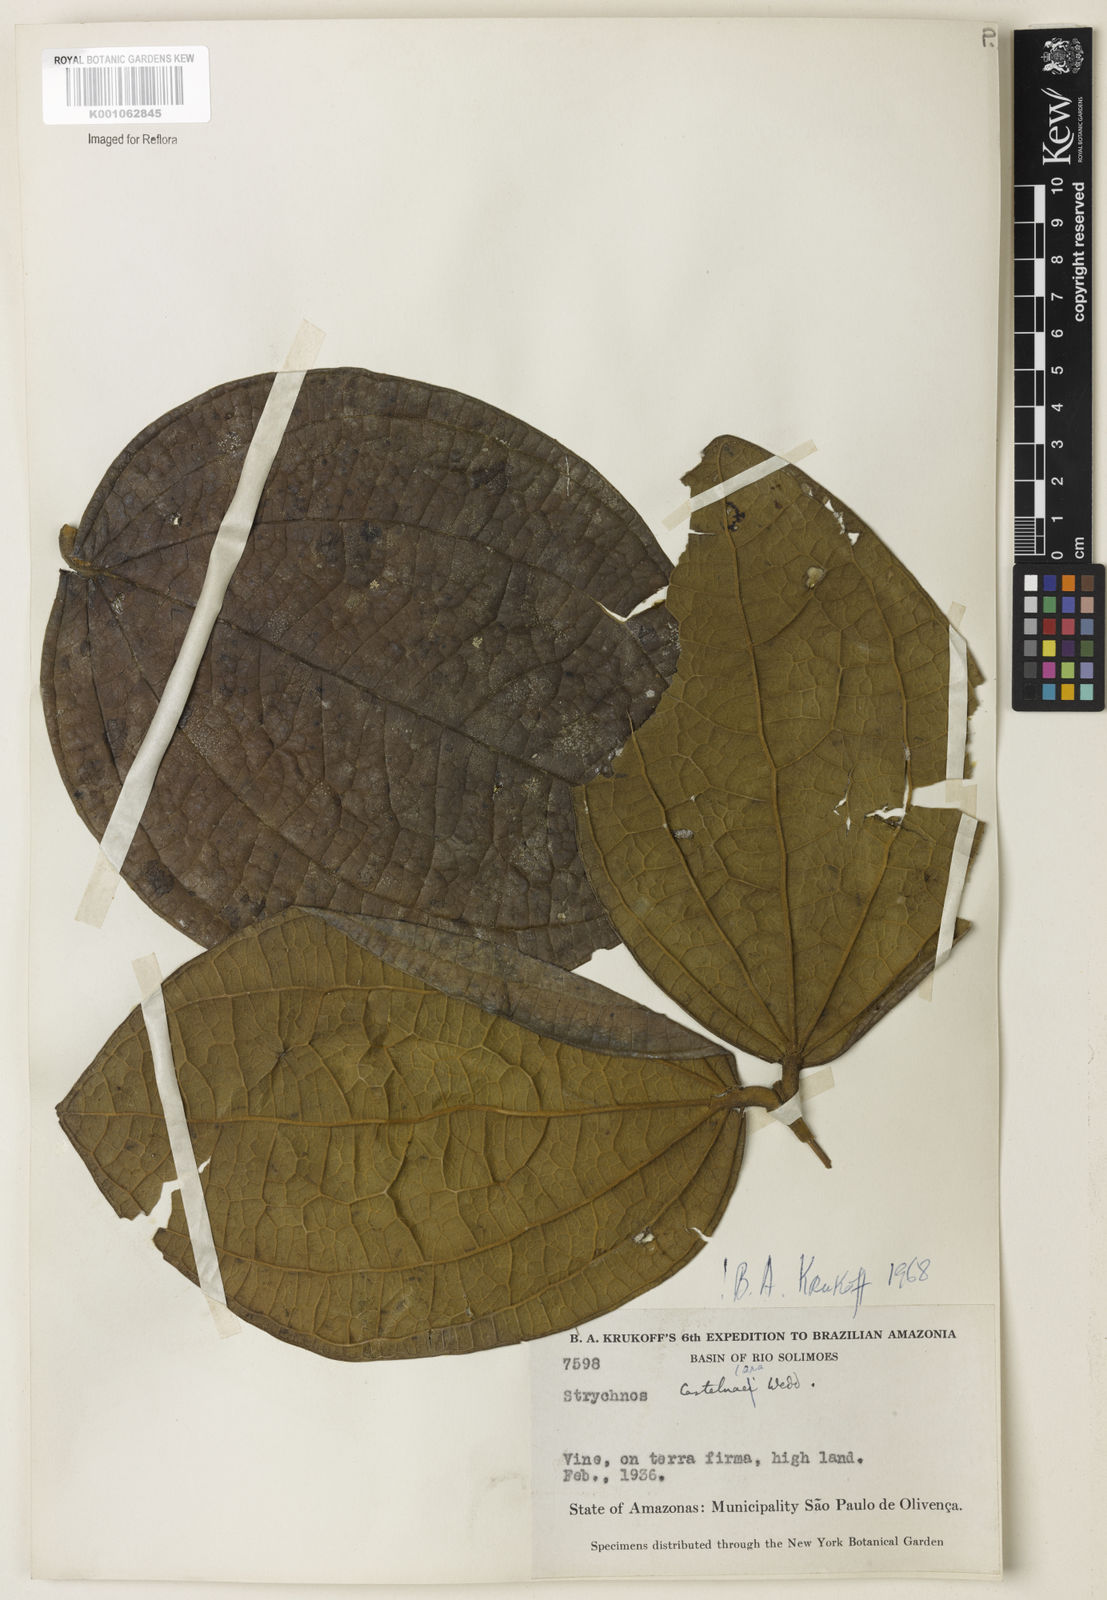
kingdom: Plantae
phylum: Tracheophyta
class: Magnoliopsida
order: Gentianales
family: Loganiaceae
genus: Strychnos
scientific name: Strychnos
